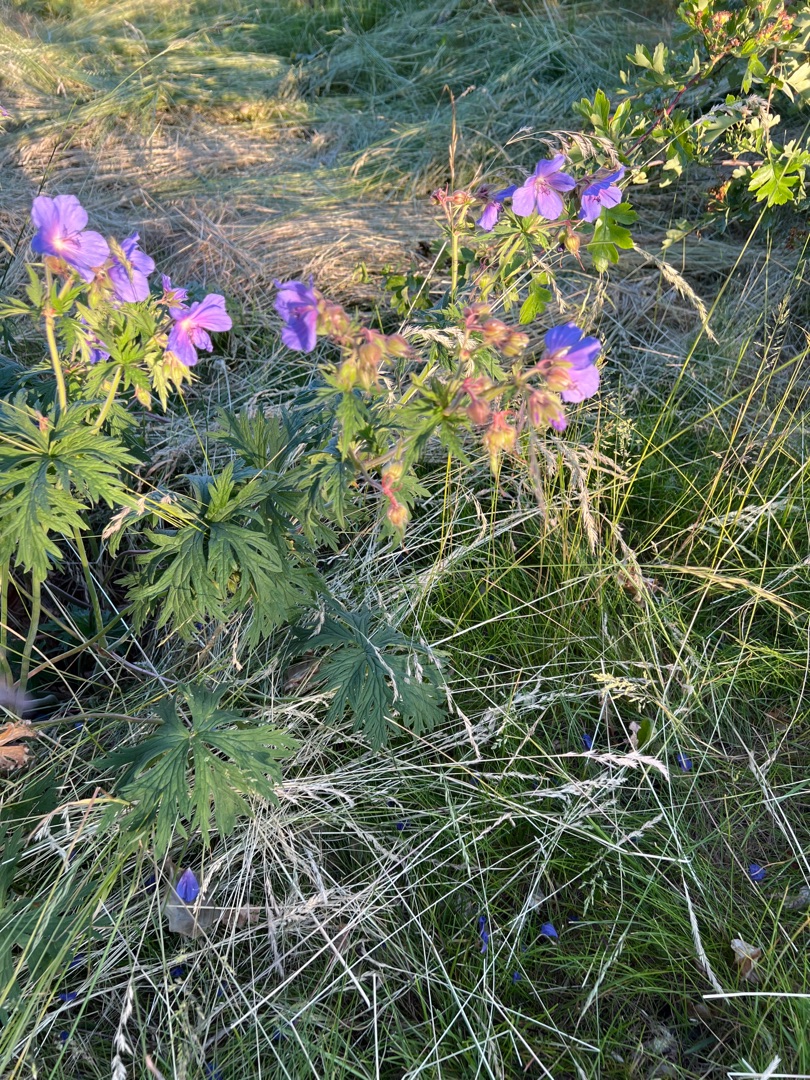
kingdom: Plantae
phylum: Tracheophyta
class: Magnoliopsida
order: Geraniales
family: Geraniaceae
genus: Geranium
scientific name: Geranium pratense
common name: Eng-storkenæb
